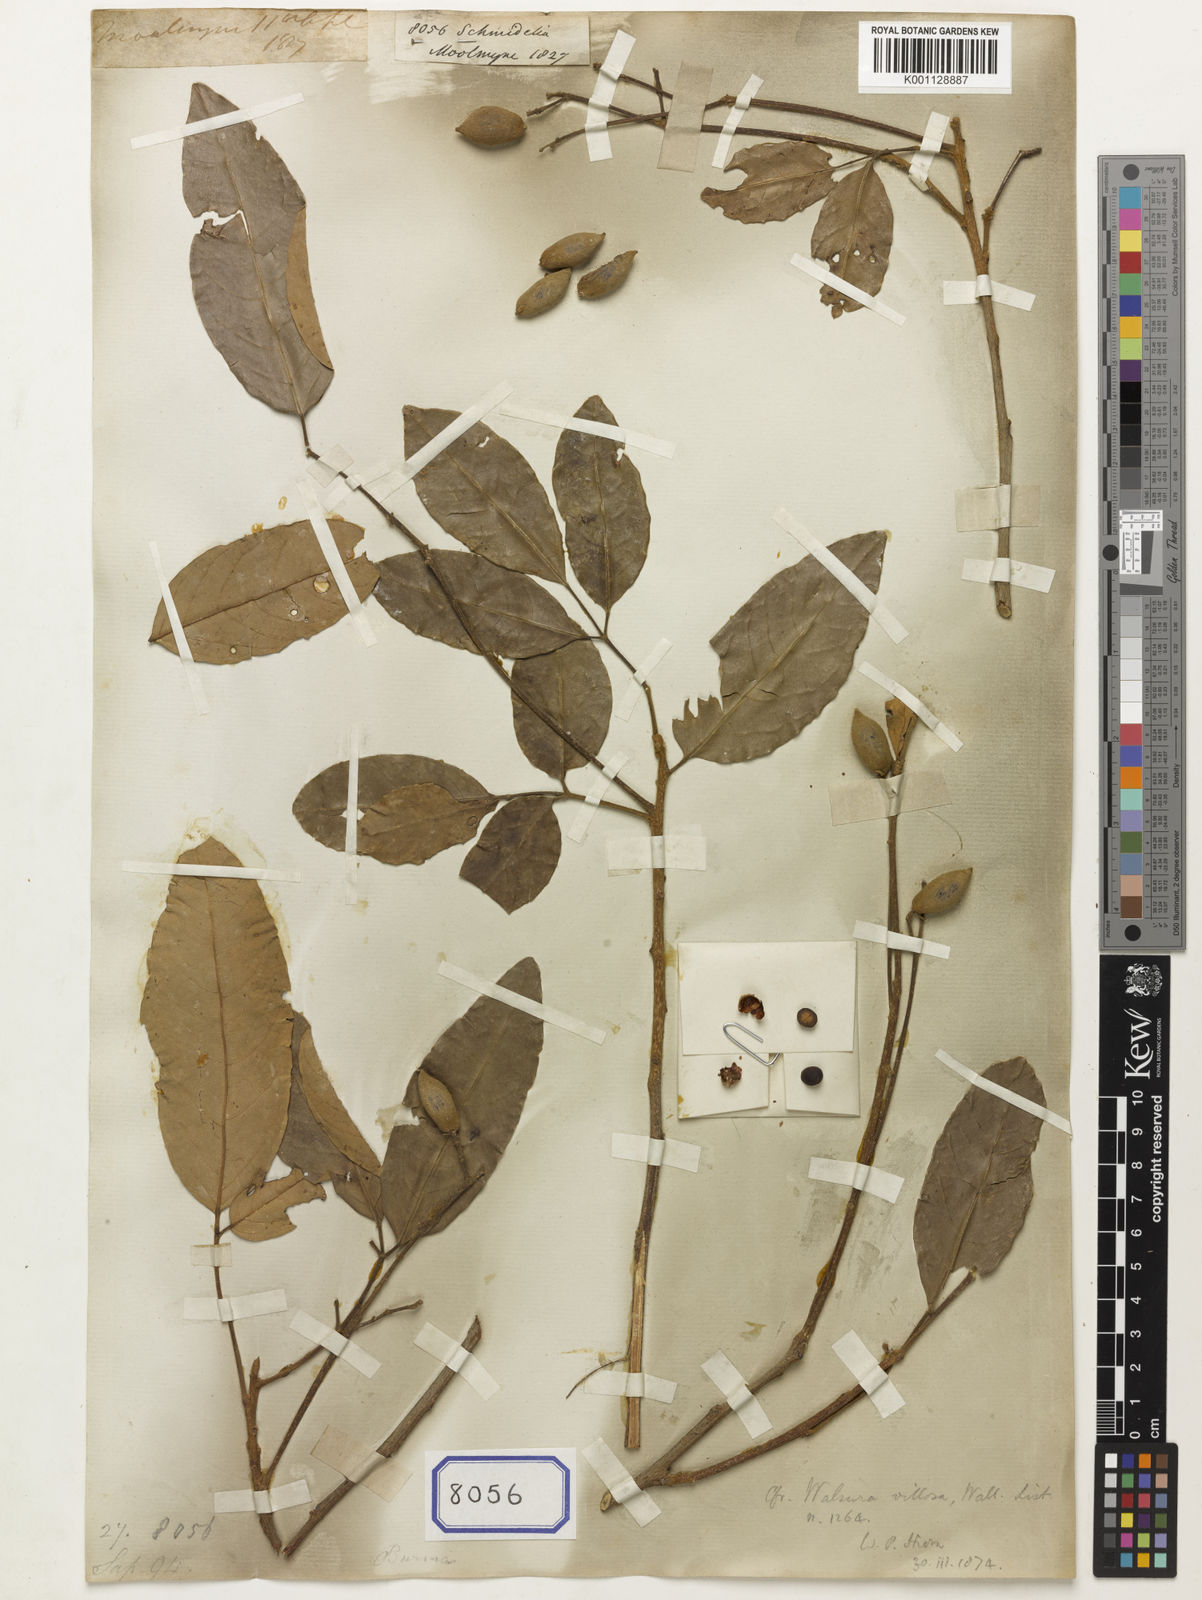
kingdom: Plantae
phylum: Tracheophyta
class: Magnoliopsida
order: Sapindales
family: Sapindaceae
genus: Allophylus
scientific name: Allophylus
